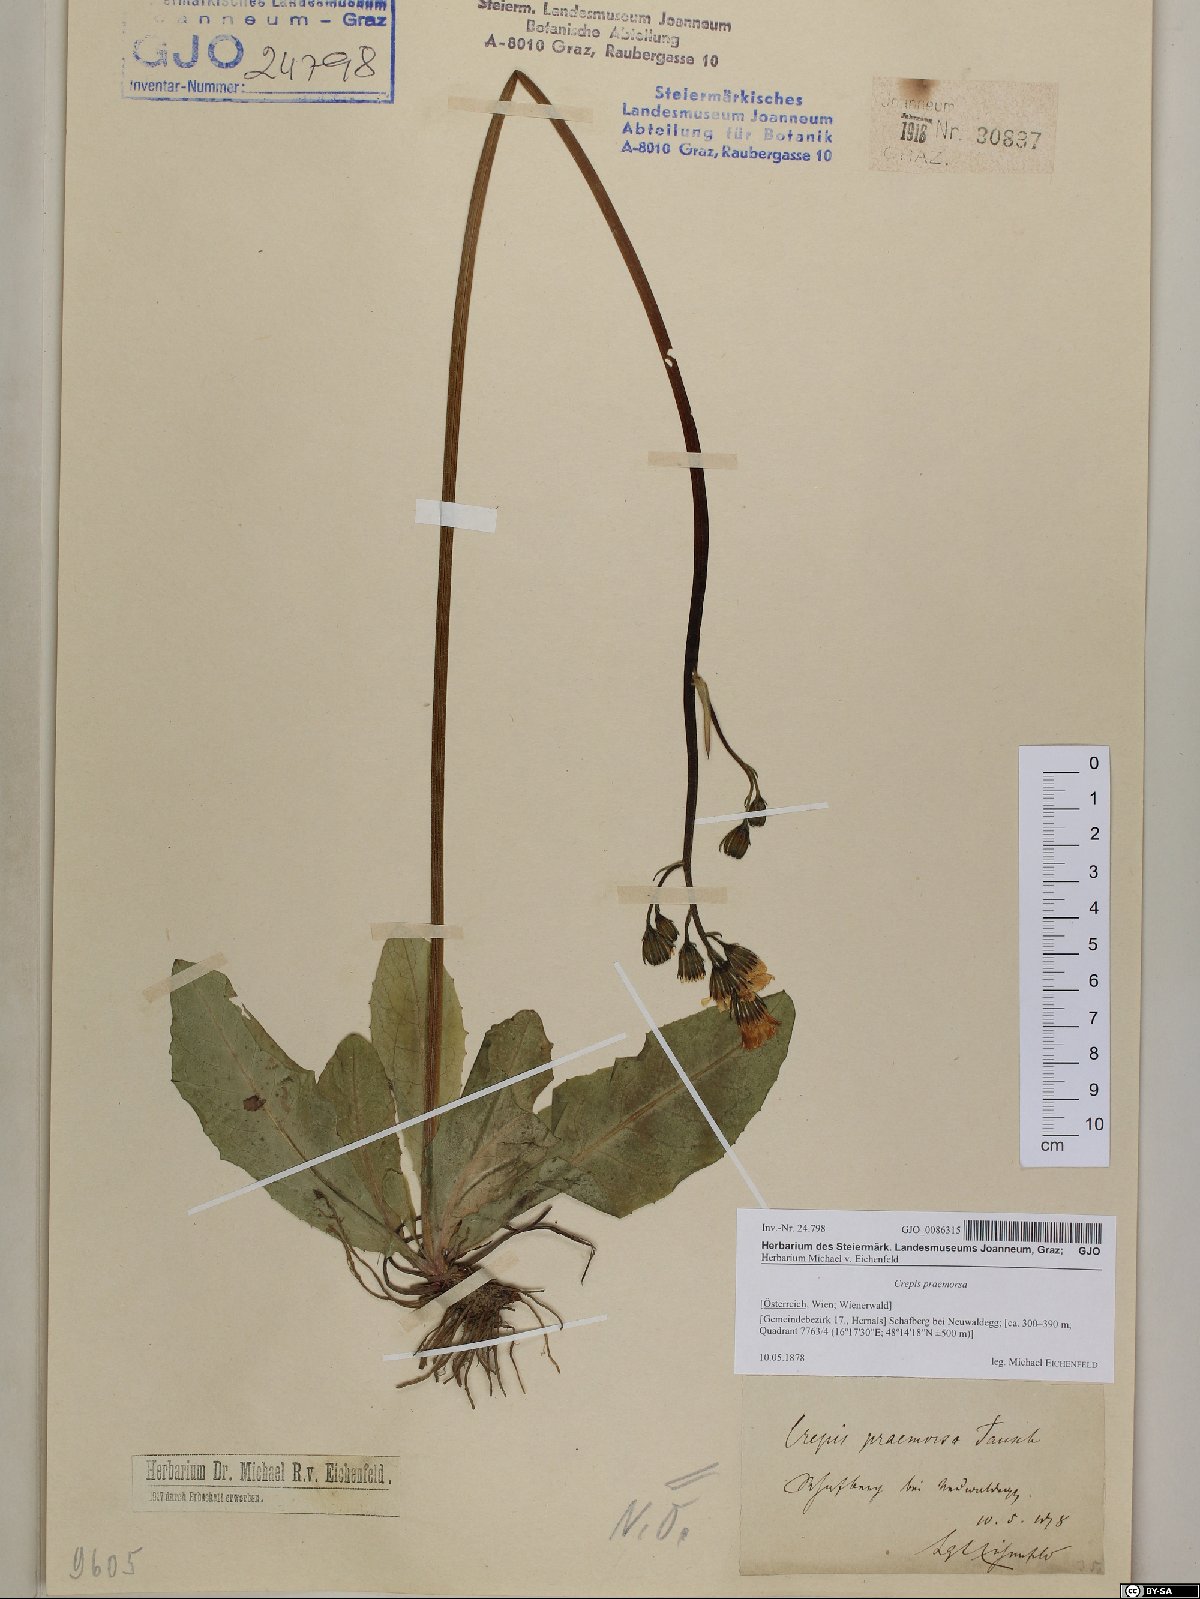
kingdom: Plantae
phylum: Tracheophyta
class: Magnoliopsida
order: Asterales
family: Asteraceae
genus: Crepis
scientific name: Crepis praemorsa
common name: Leafless hawk's-beard
